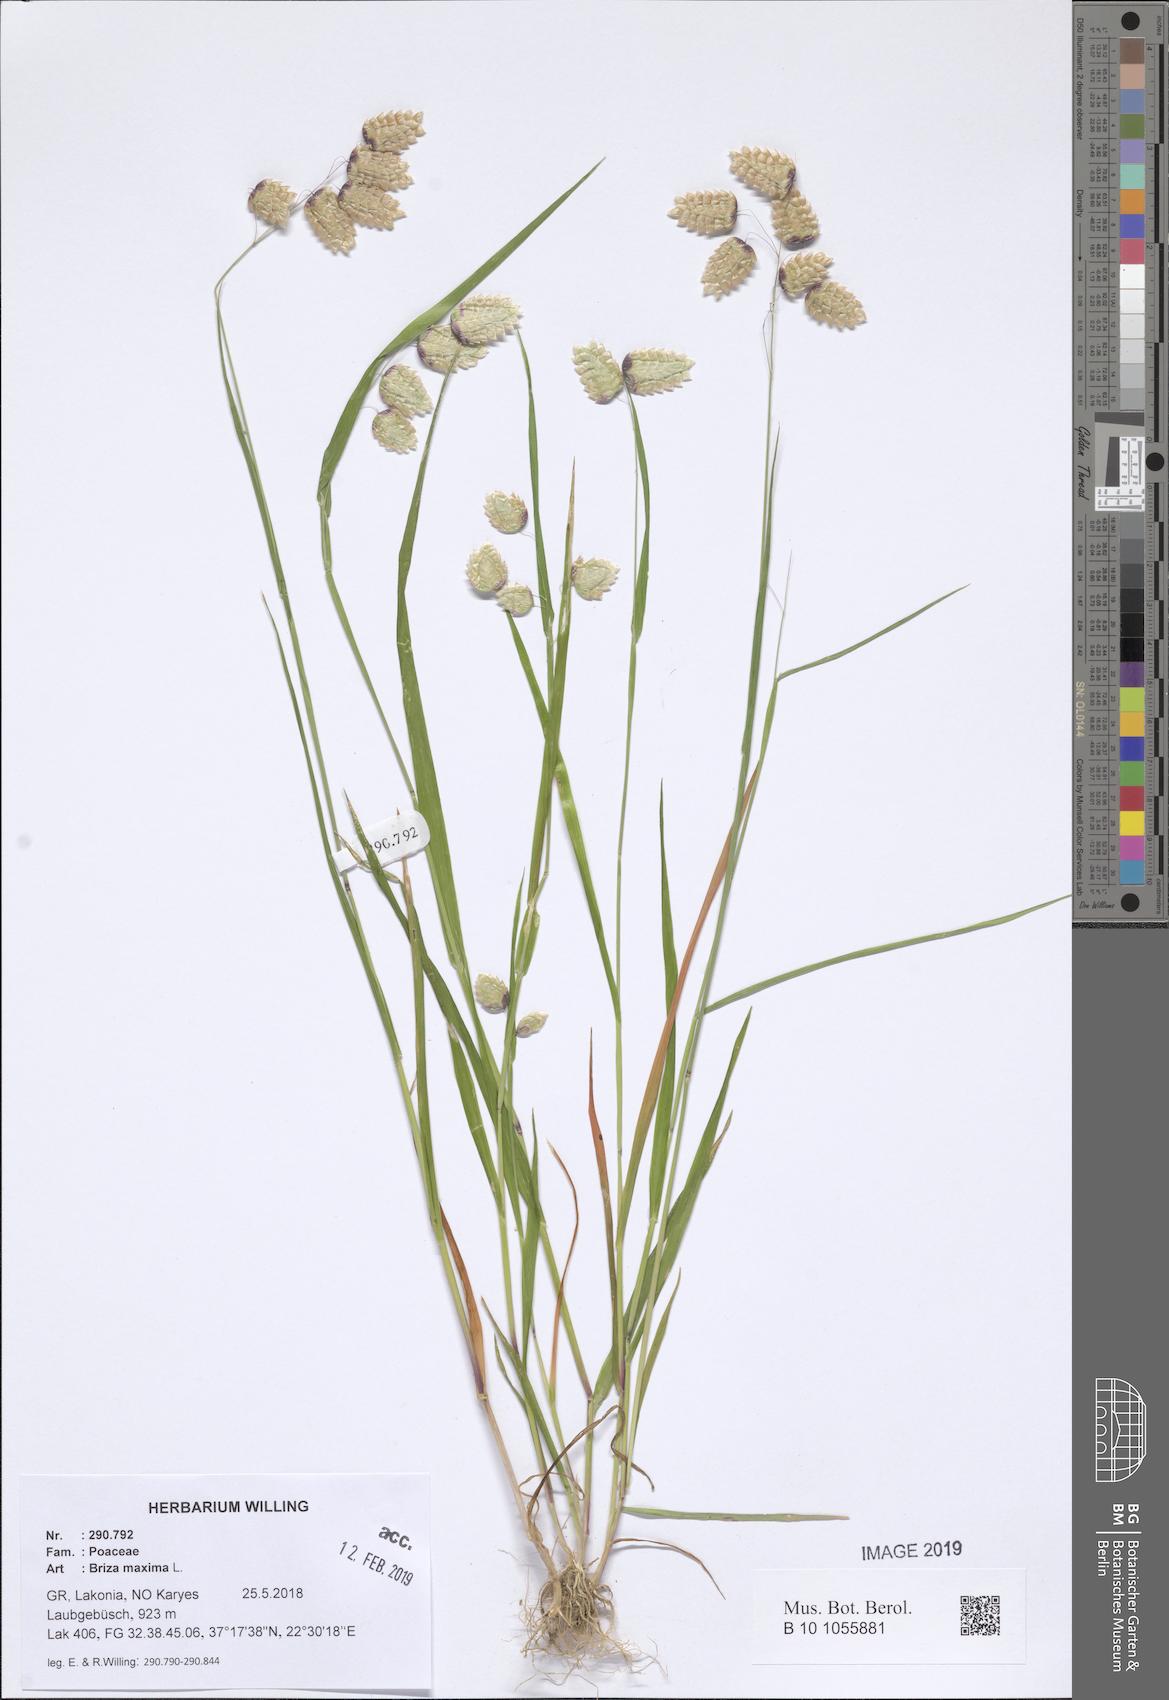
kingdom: Plantae
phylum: Tracheophyta
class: Liliopsida
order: Poales
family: Poaceae
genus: Briza
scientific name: Briza maxima
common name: Big quakinggrass
